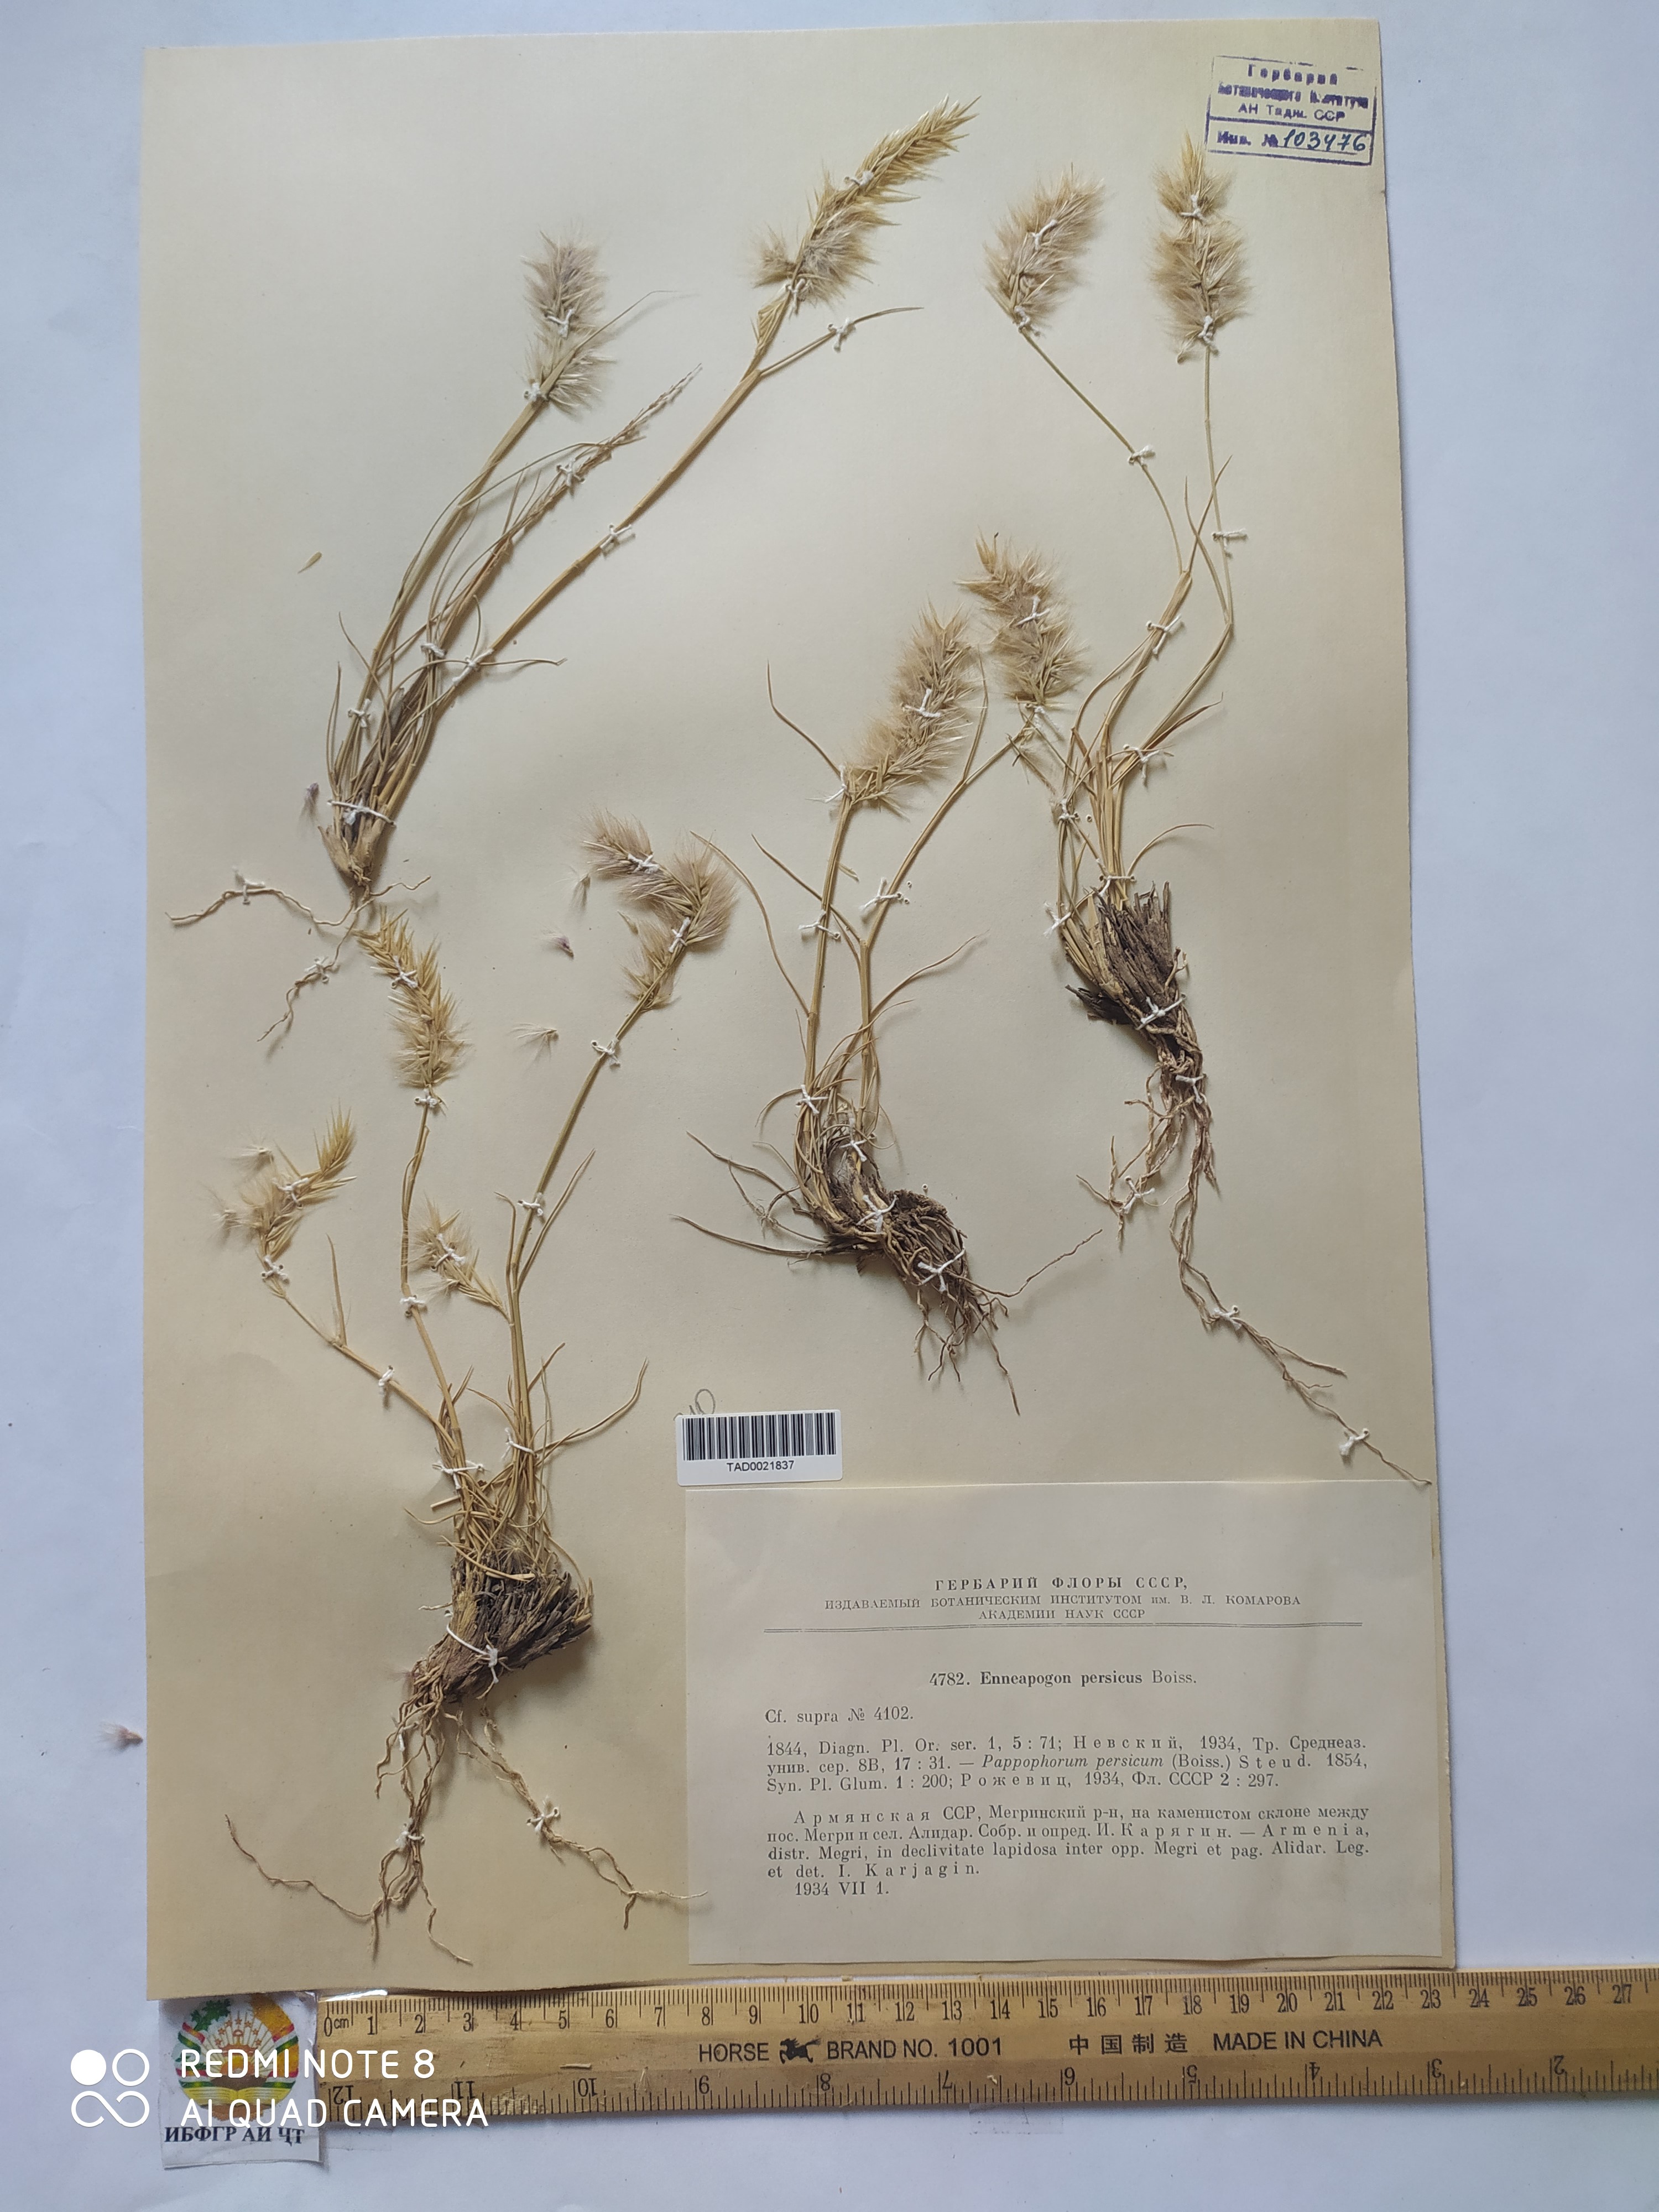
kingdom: Plantae
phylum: Tracheophyta
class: Liliopsida
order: Poales
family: Poaceae
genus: Enneapogon
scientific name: Enneapogon persicus
